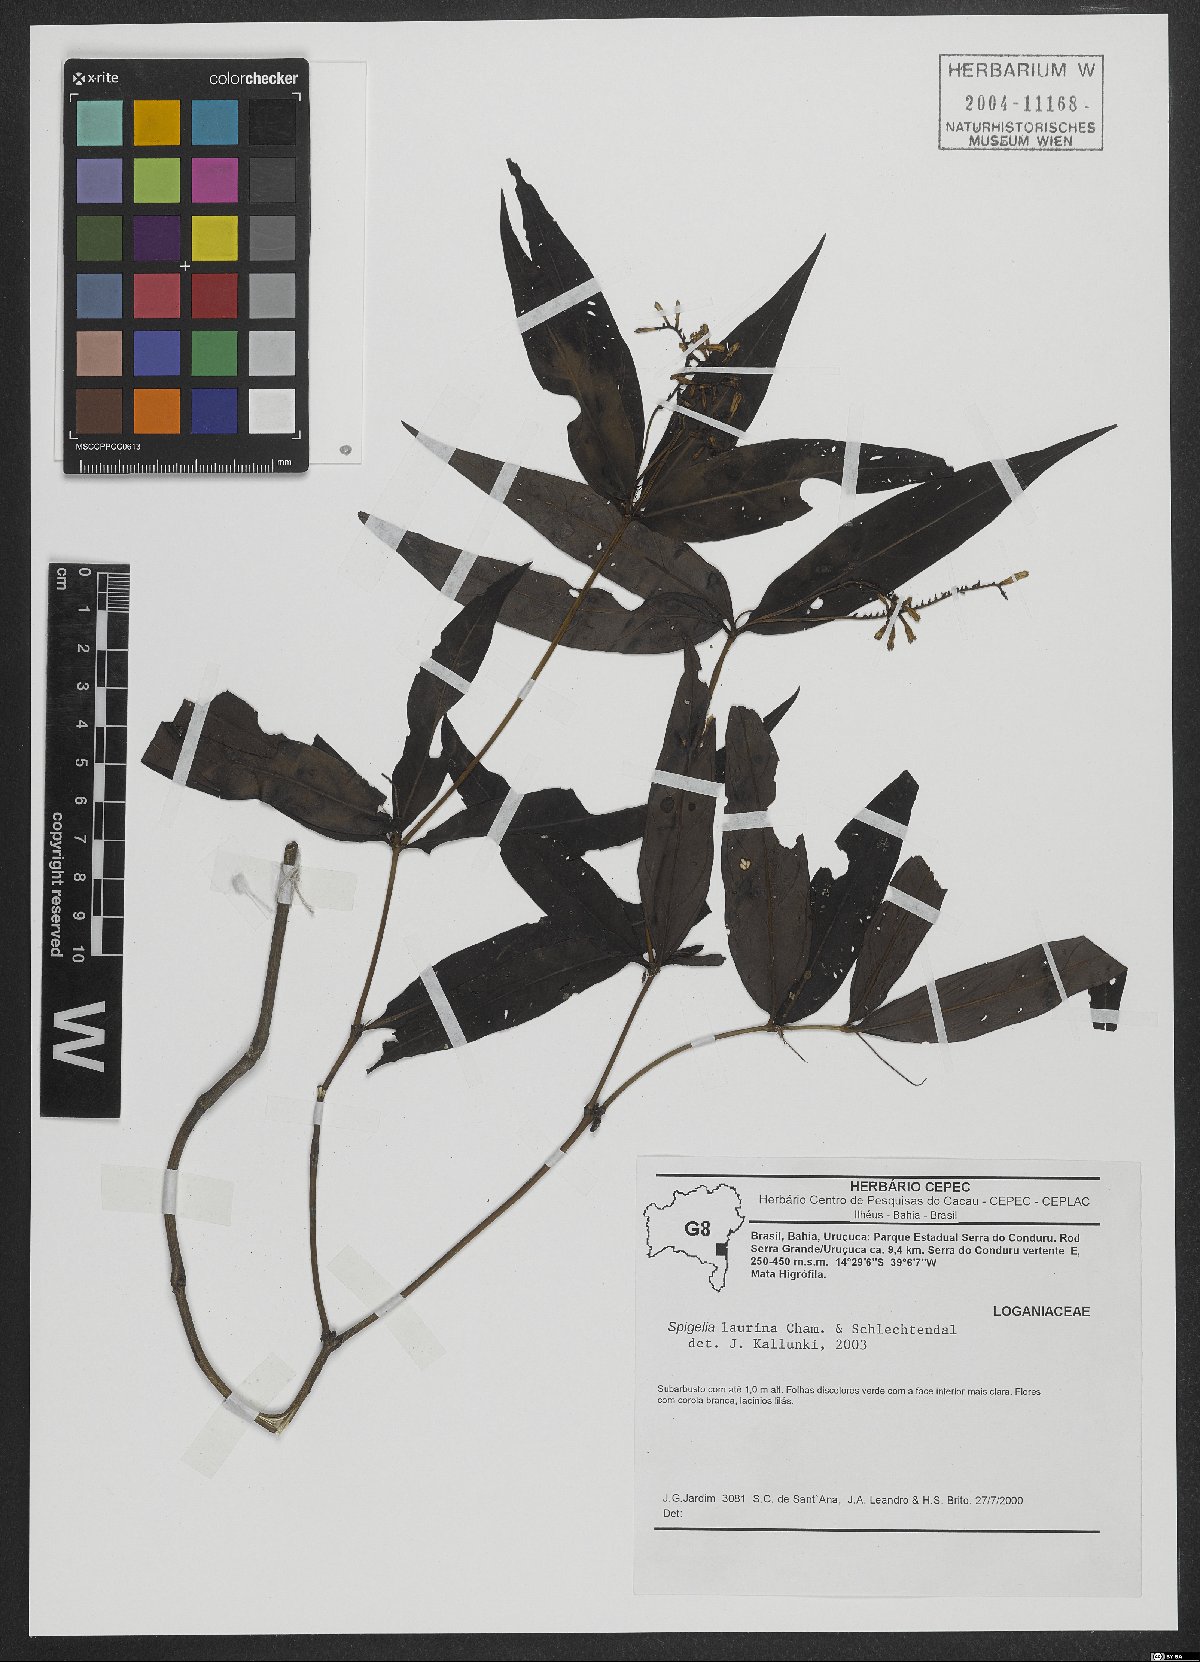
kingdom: Plantae
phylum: Tracheophyta
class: Magnoliopsida
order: Gentianales
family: Loganiaceae
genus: Spigelia
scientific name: Spigelia laurina
